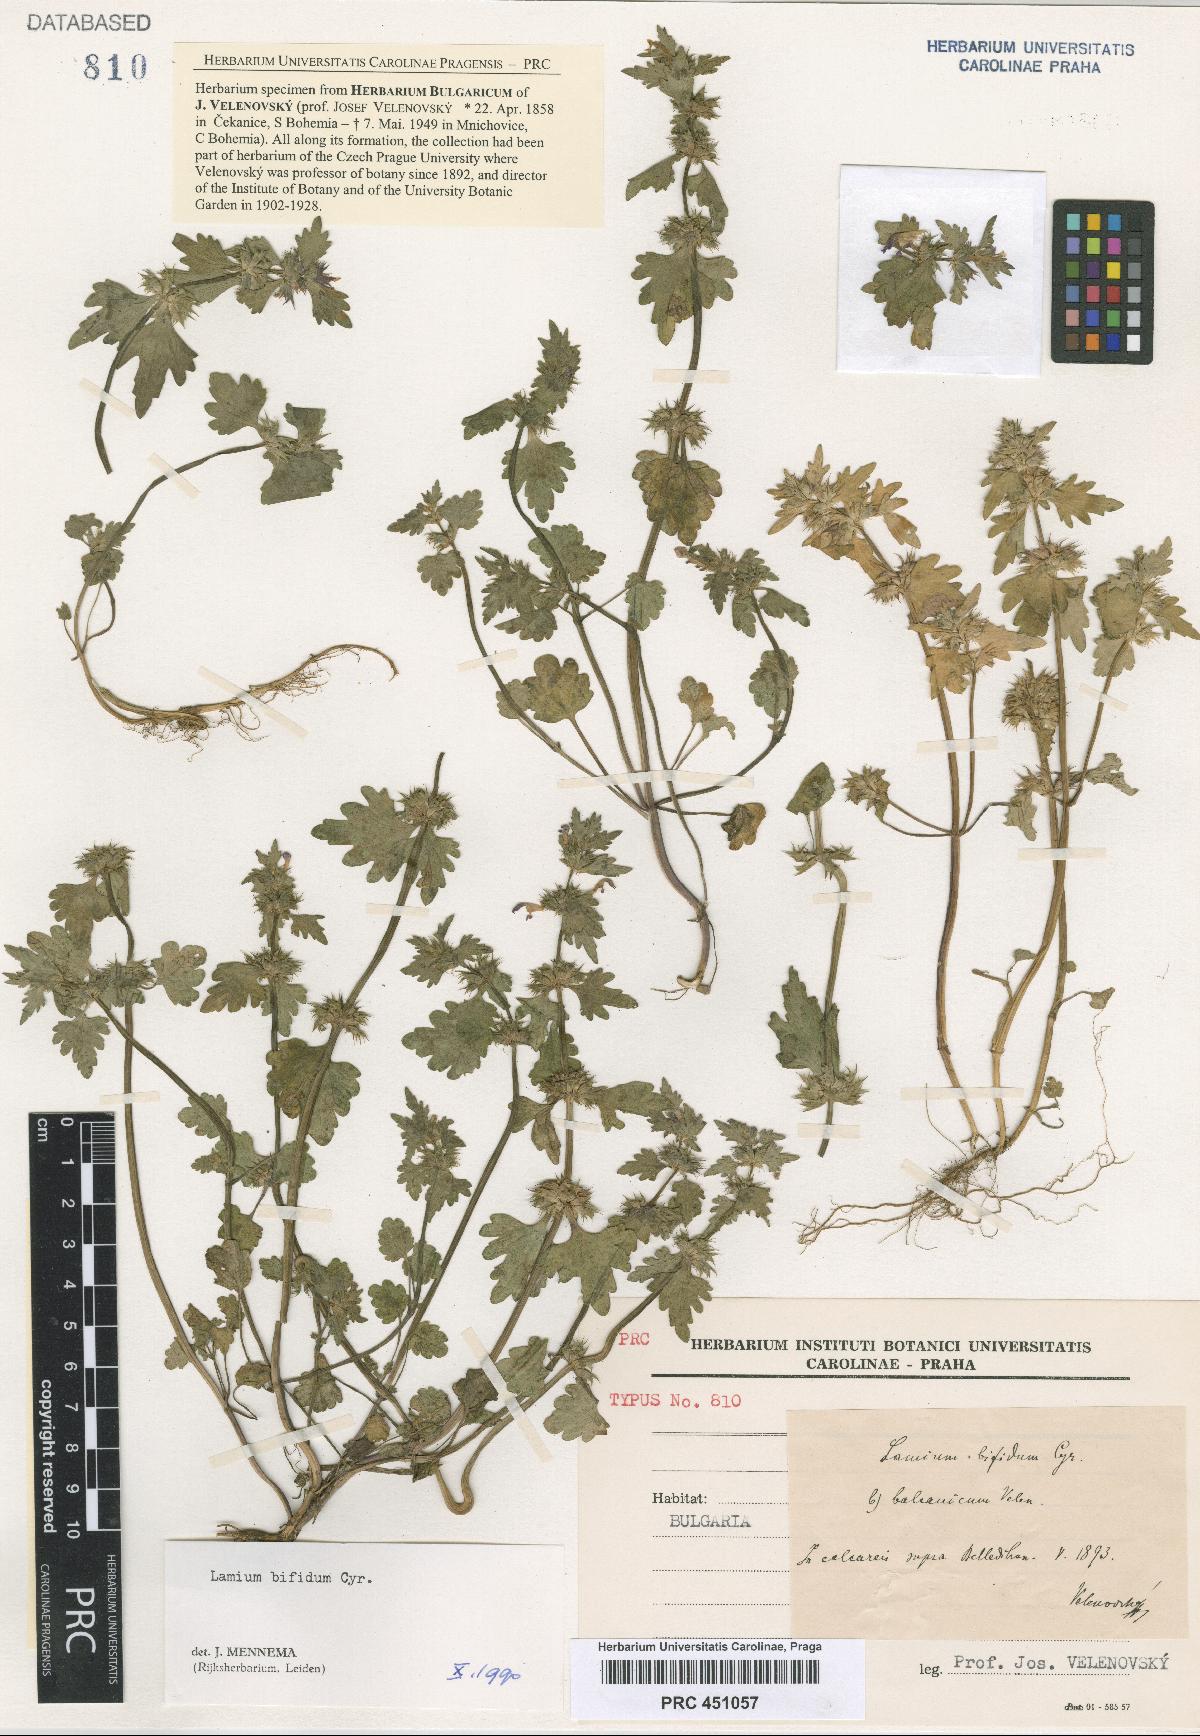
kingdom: Plantae
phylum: Tracheophyta
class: Magnoliopsida
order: Lamiales
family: Lamiaceae
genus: Lamium
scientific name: Lamium bifidum
